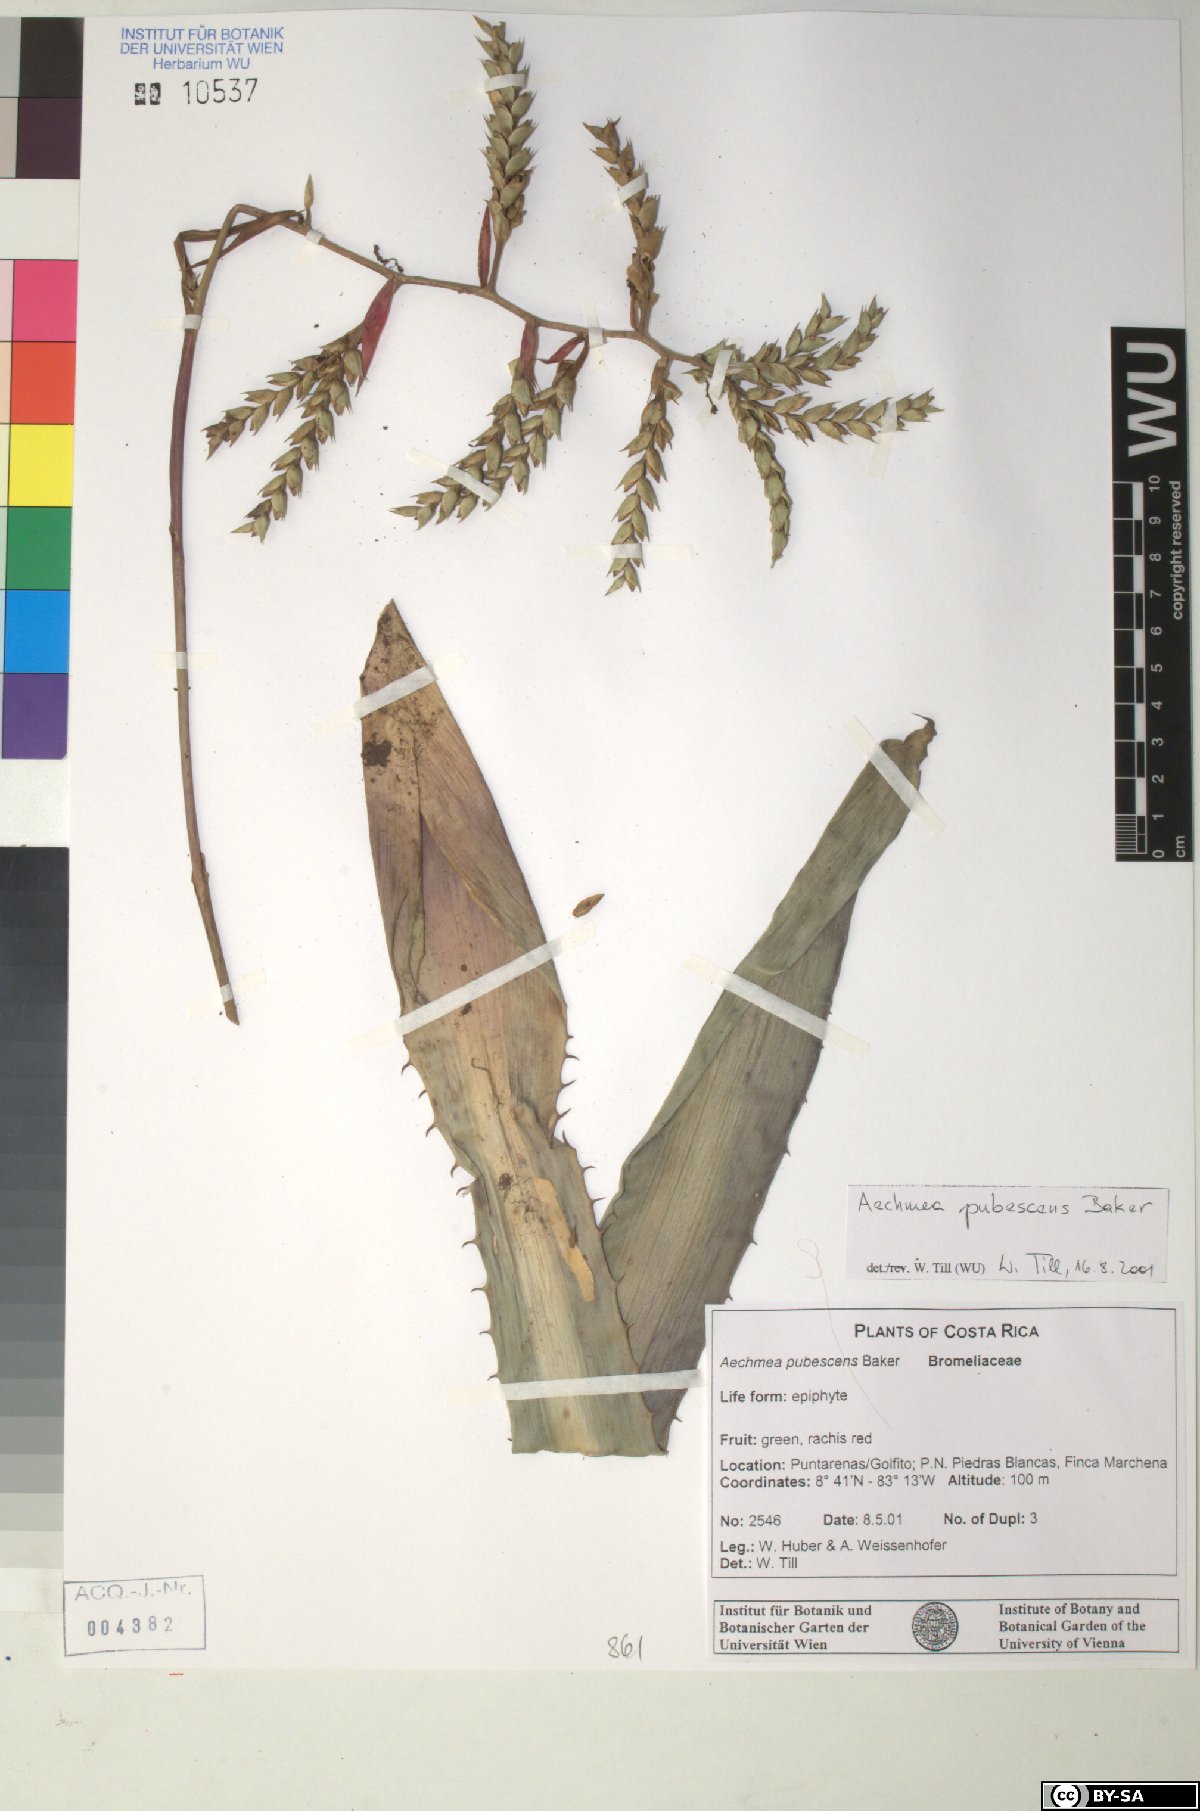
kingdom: Plantae
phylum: Tracheophyta
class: Liliopsida
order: Poales
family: Bromeliaceae
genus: Aechmea
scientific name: Aechmea pubescens
